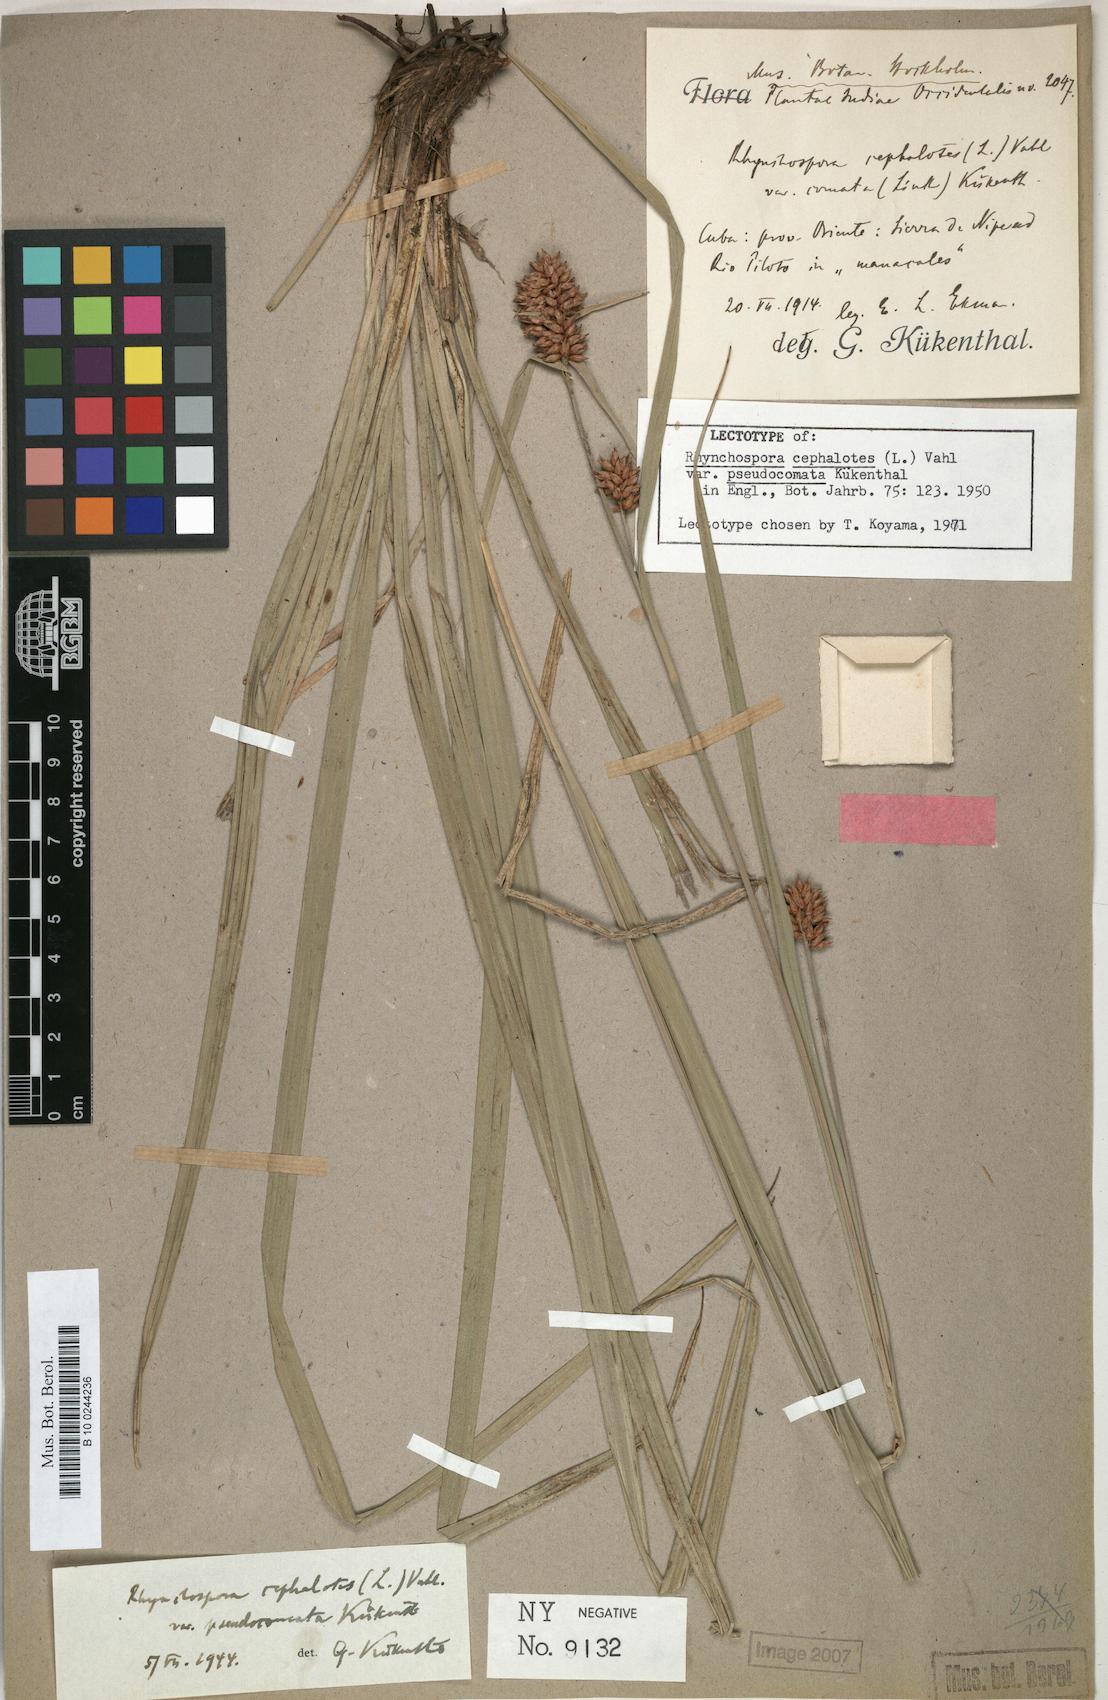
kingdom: Plantae
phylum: Tracheophyta
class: Liliopsida
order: Poales
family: Cyperaceae
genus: Rhynchospora
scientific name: Rhynchospora cephalotoides
